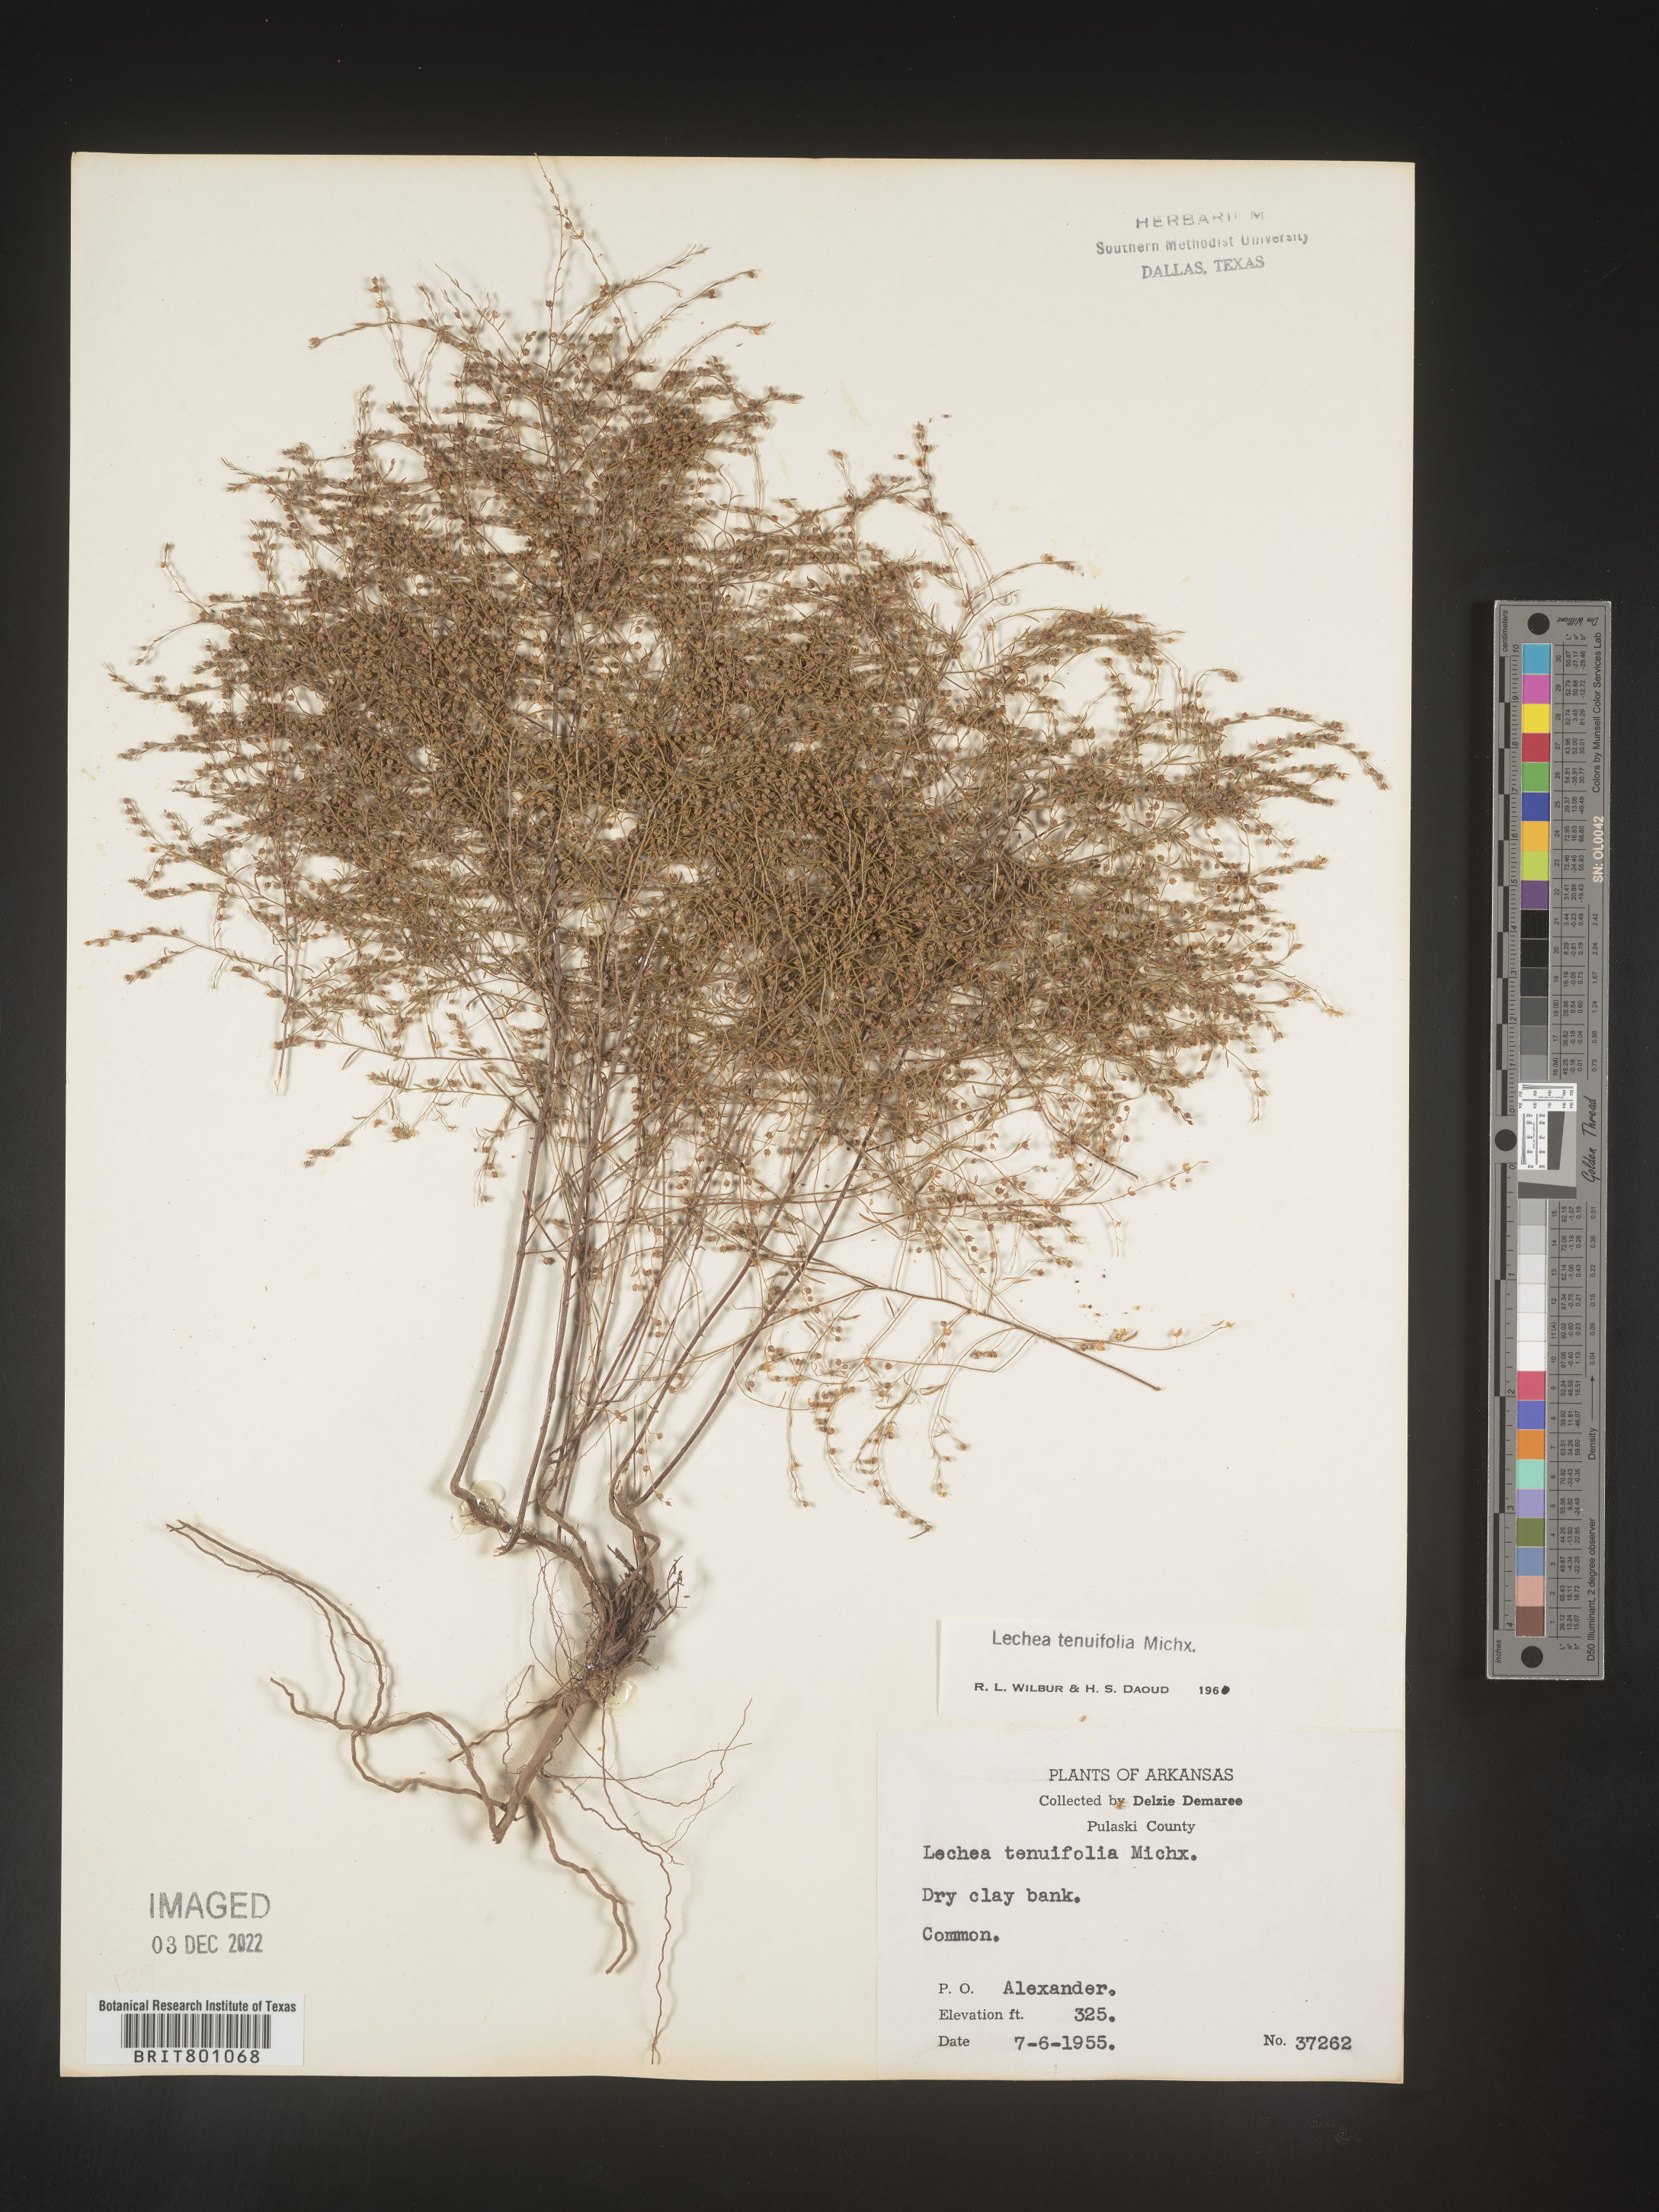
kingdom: Plantae
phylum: Tracheophyta
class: Magnoliopsida
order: Malvales
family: Cistaceae
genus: Lechea
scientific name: Lechea tenuifolia
